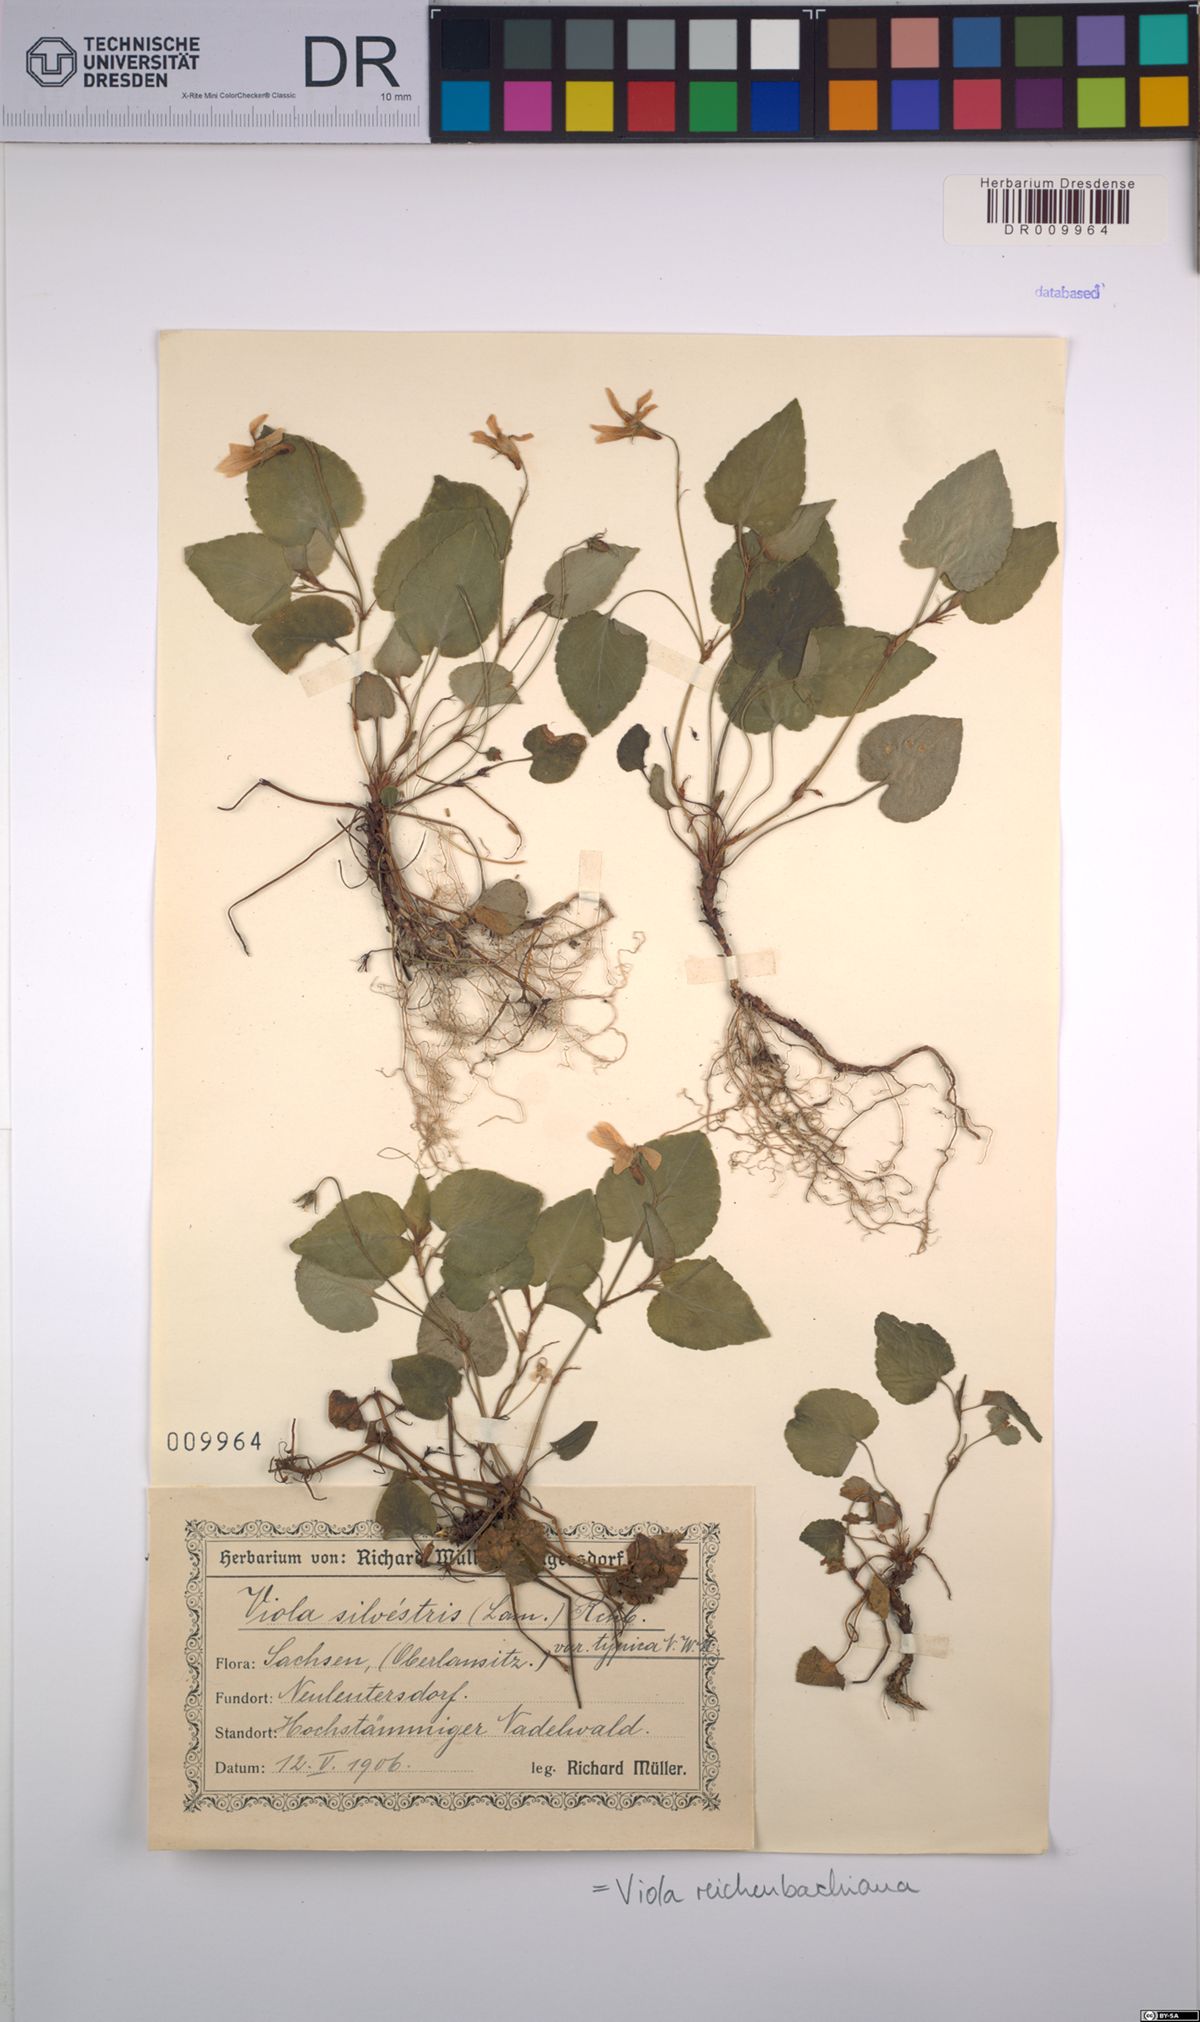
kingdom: Plantae
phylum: Tracheophyta
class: Magnoliopsida
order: Malpighiales
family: Violaceae
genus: Viola
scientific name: Viola reichenbachiana
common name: Early dog-violet
